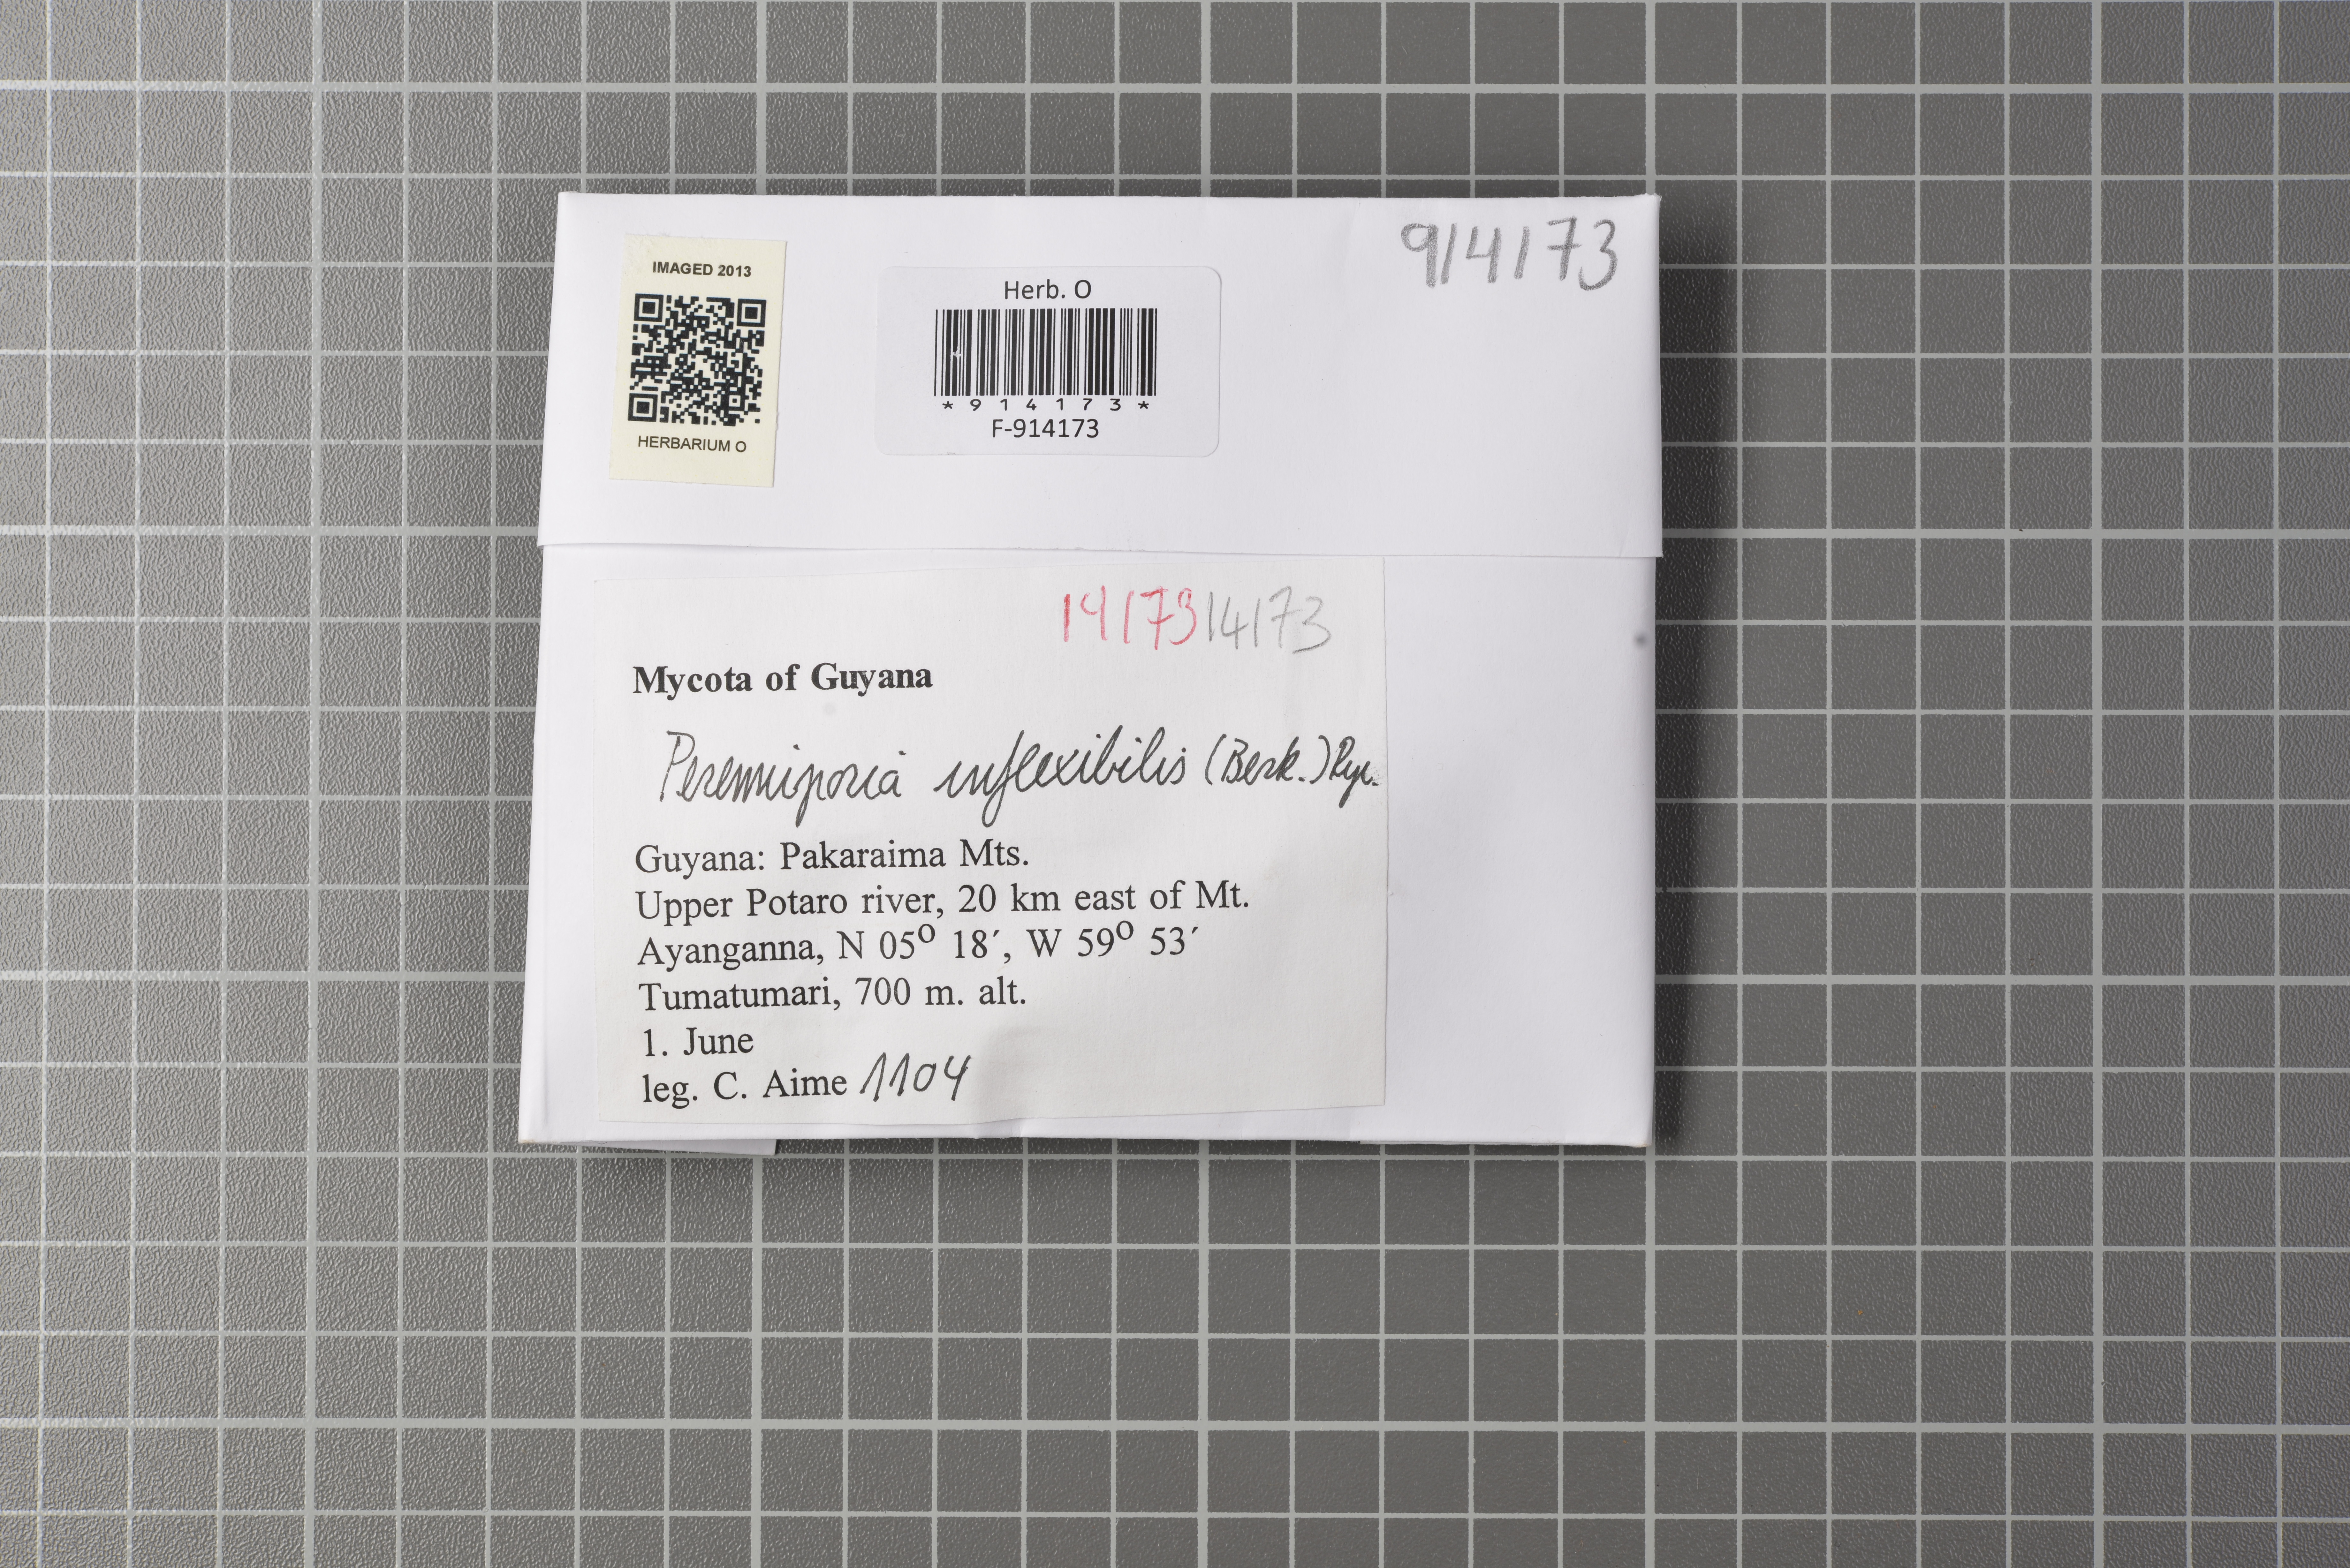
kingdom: Fungi
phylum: Basidiomycota
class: Agaricomycetes
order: Polyporales
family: Polyporaceae
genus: Perenniporia
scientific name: Perenniporia inflexibilis
